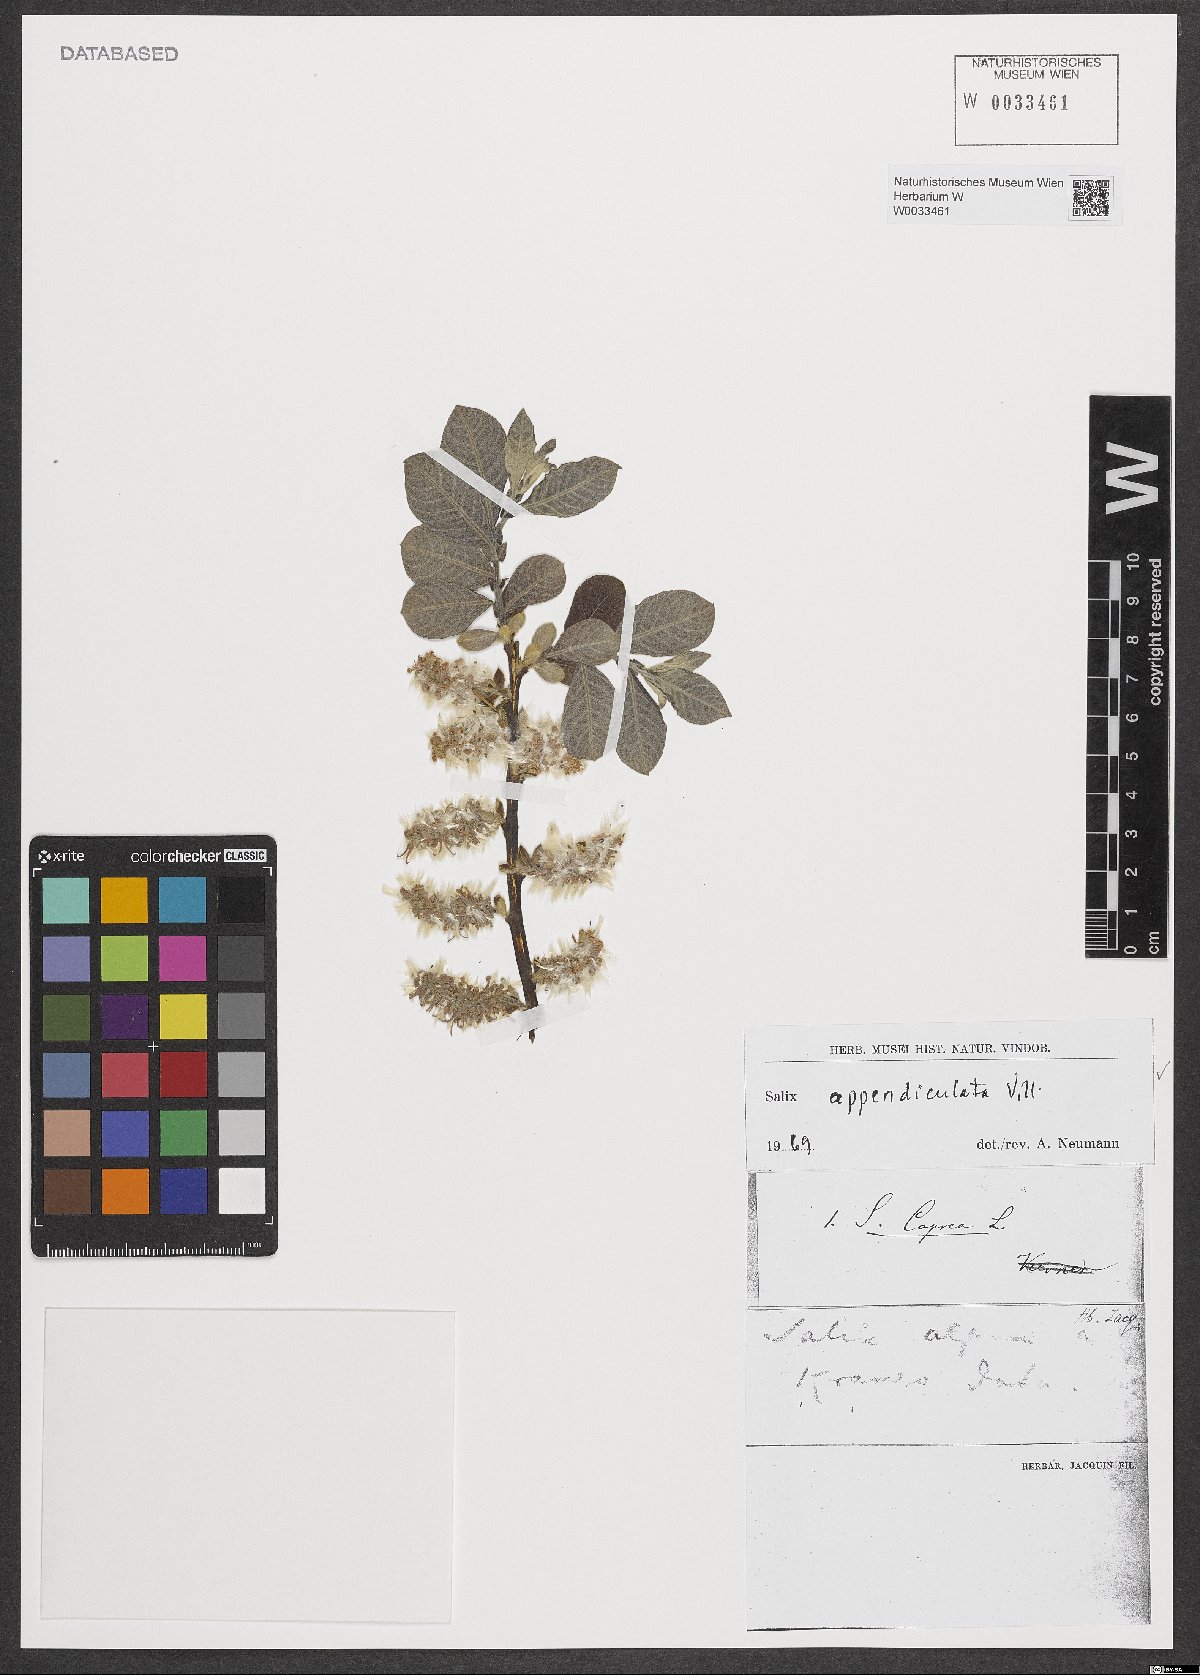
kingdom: Plantae
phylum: Tracheophyta
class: Magnoliopsida
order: Malpighiales
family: Salicaceae
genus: Salix
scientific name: Salix appendiculata
